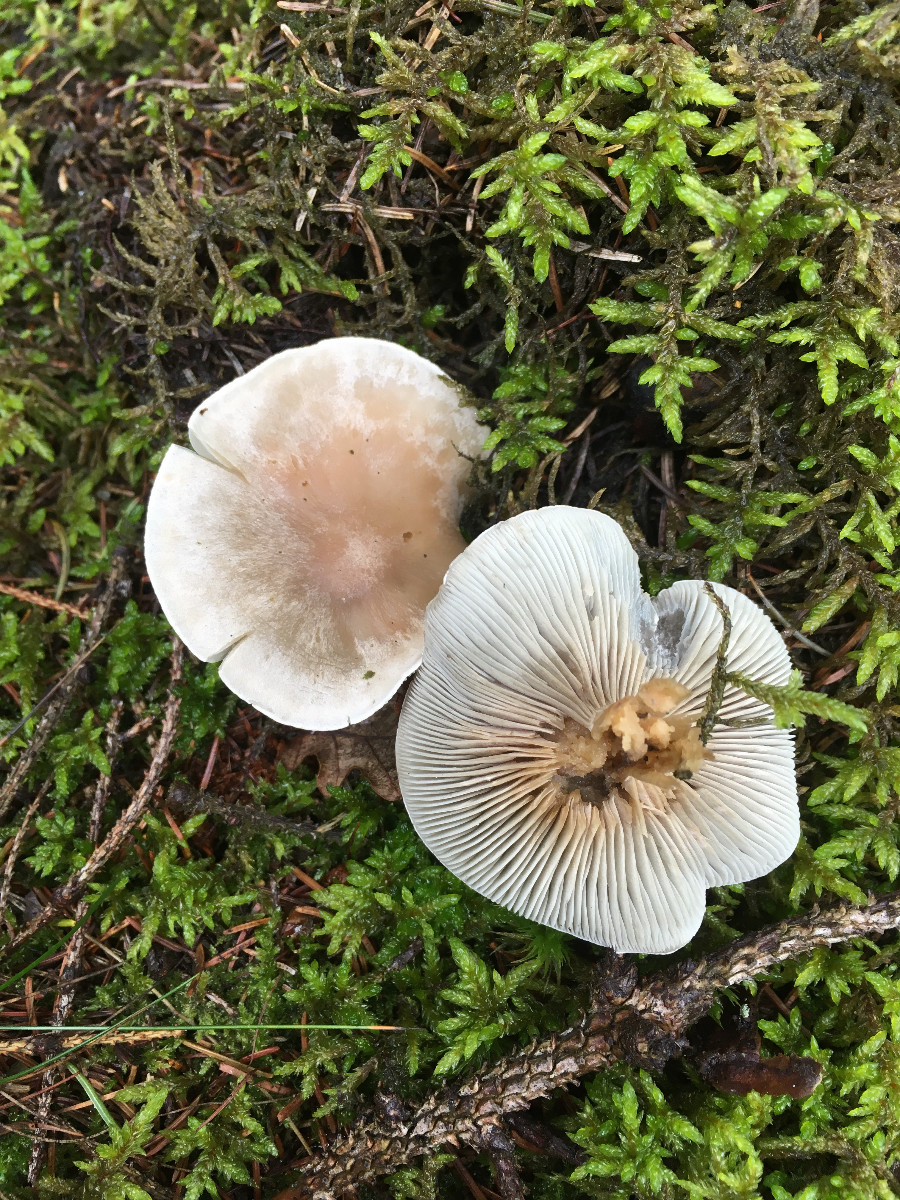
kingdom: Fungi
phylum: Basidiomycota
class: Agaricomycetes
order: Agaricales
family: Tricholomataceae
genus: Clitocybe
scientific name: Clitocybe odora
